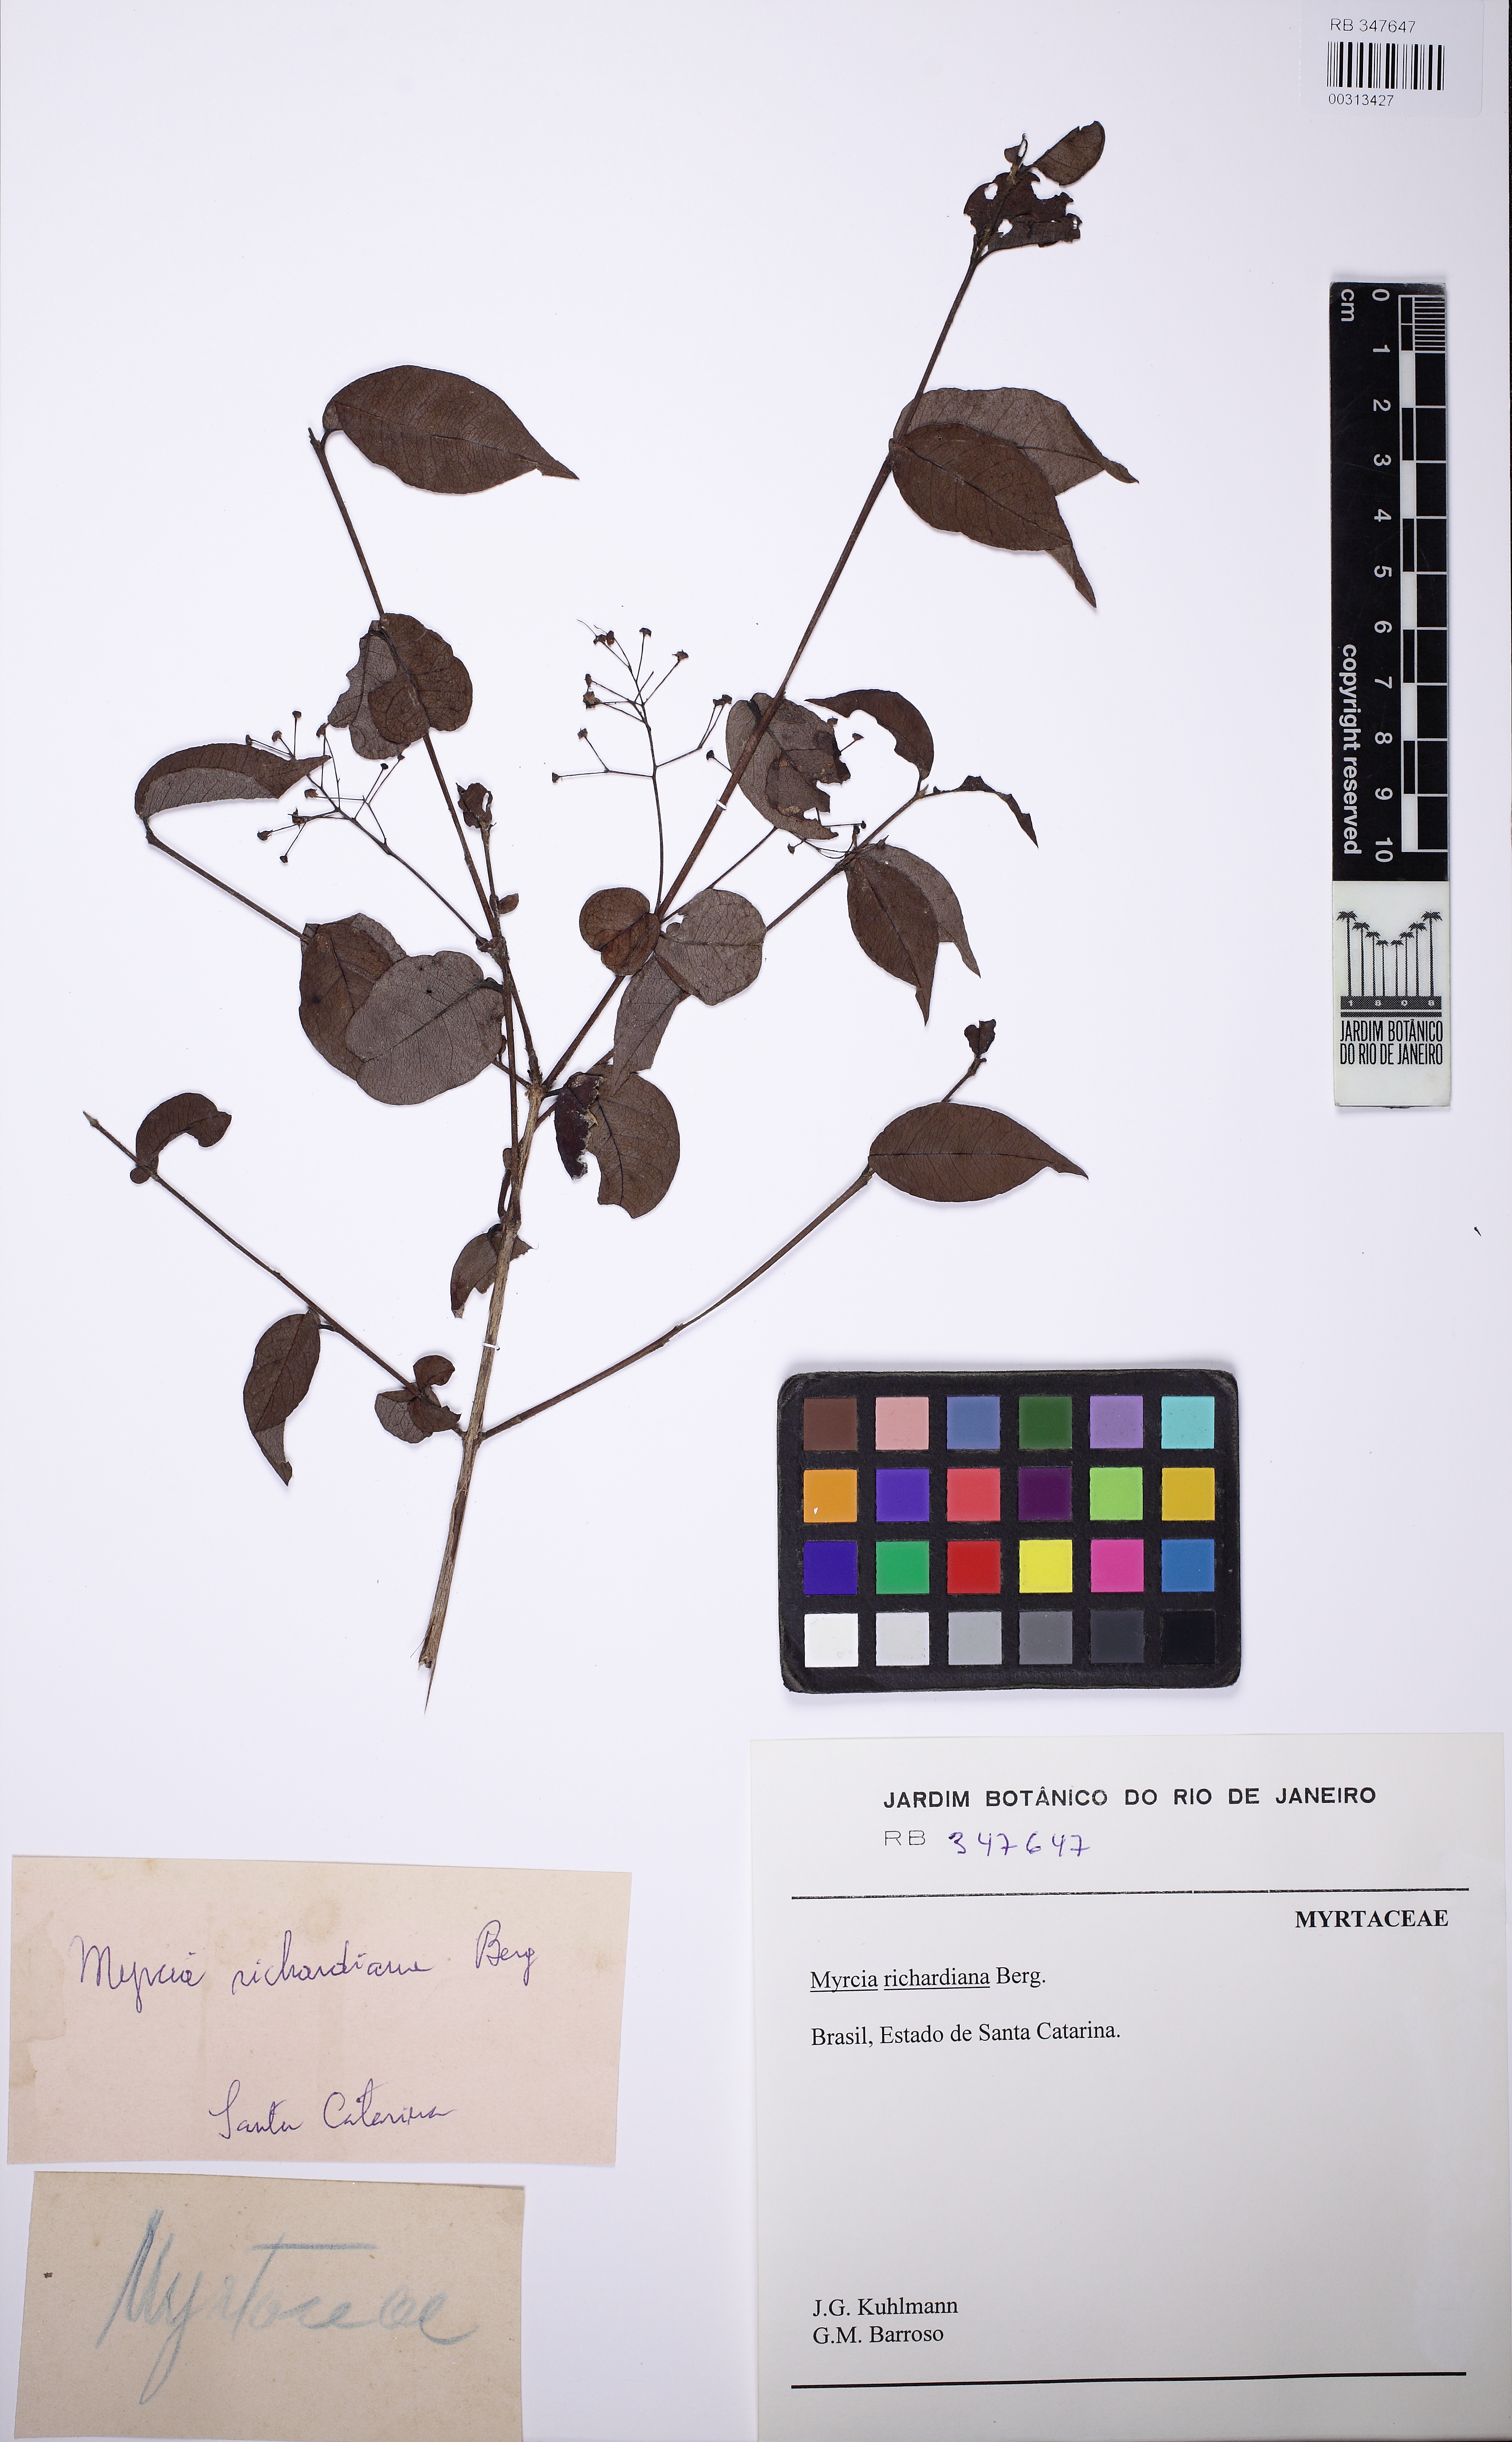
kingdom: Plantae
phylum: Tracheophyta
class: Magnoliopsida
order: Myrtales
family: Myrtaceae
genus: Myrcia
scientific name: Myrcia laruotteana
